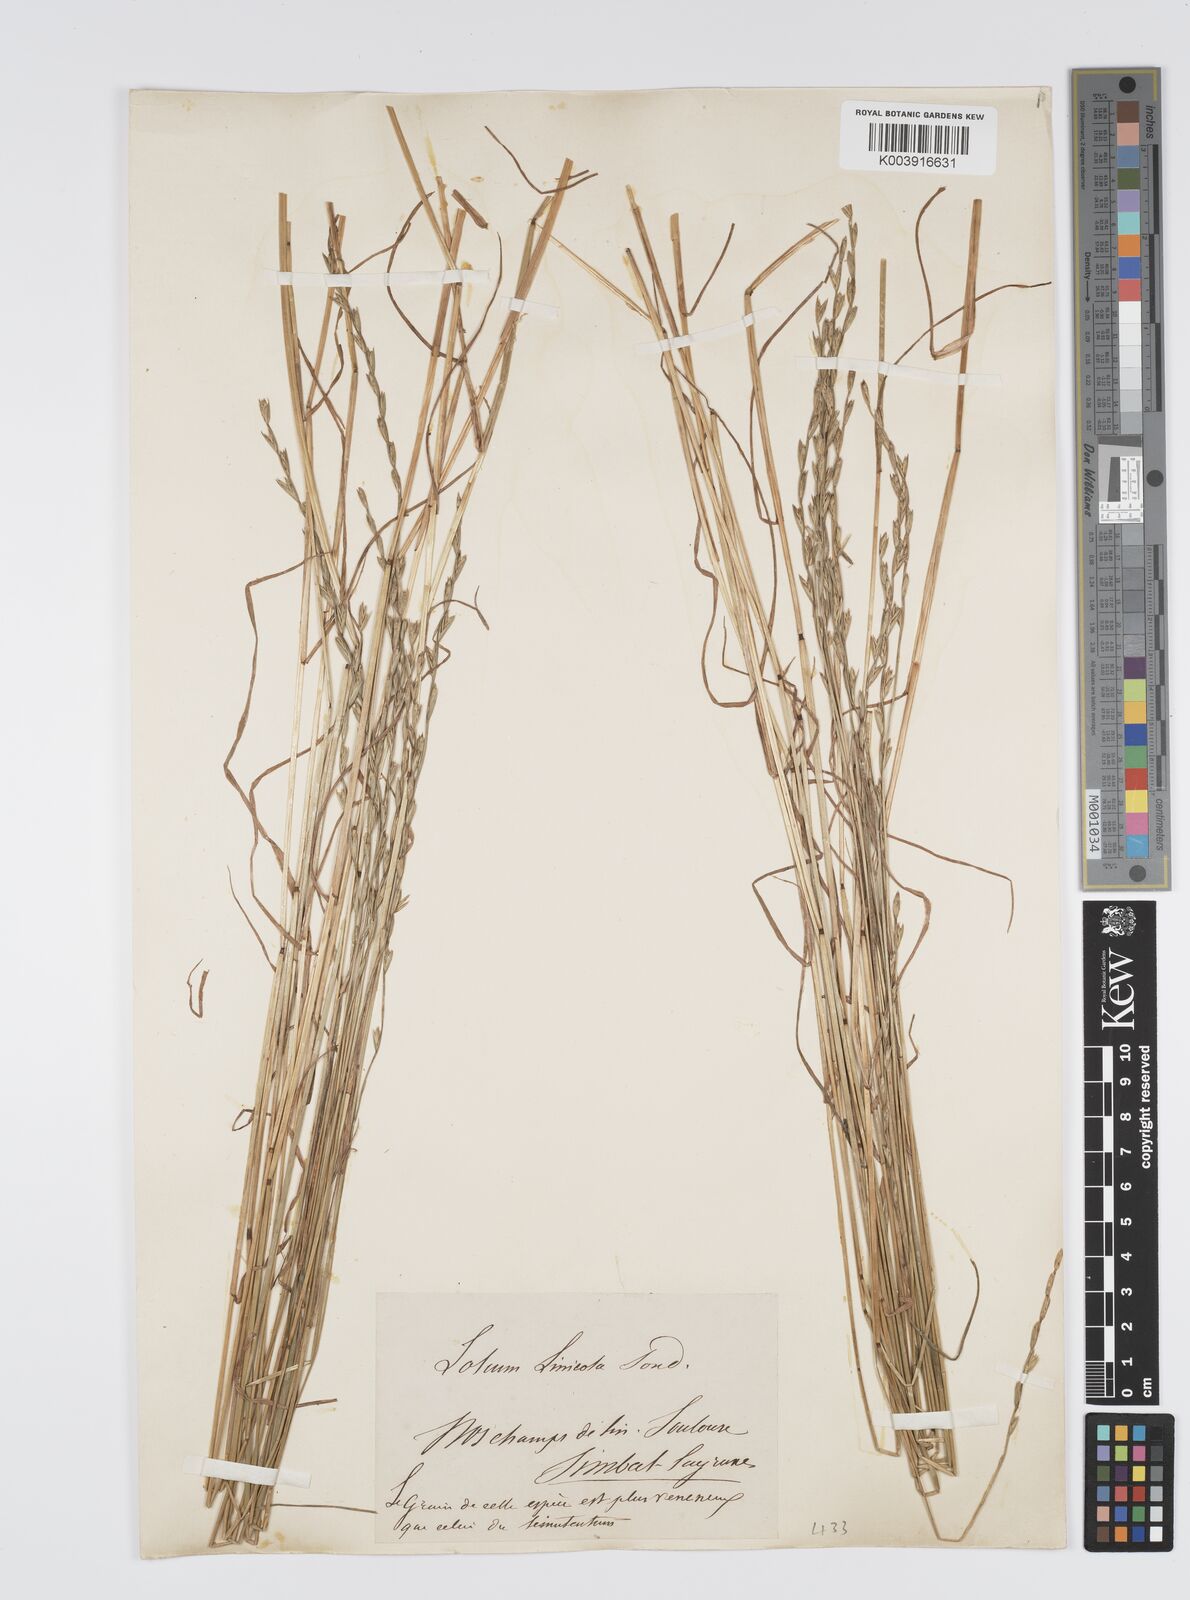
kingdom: Plantae
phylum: Tracheophyta
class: Liliopsida
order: Poales
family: Poaceae
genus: Lolium
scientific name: Lolium remotum
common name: Flaxfield rye-grass
